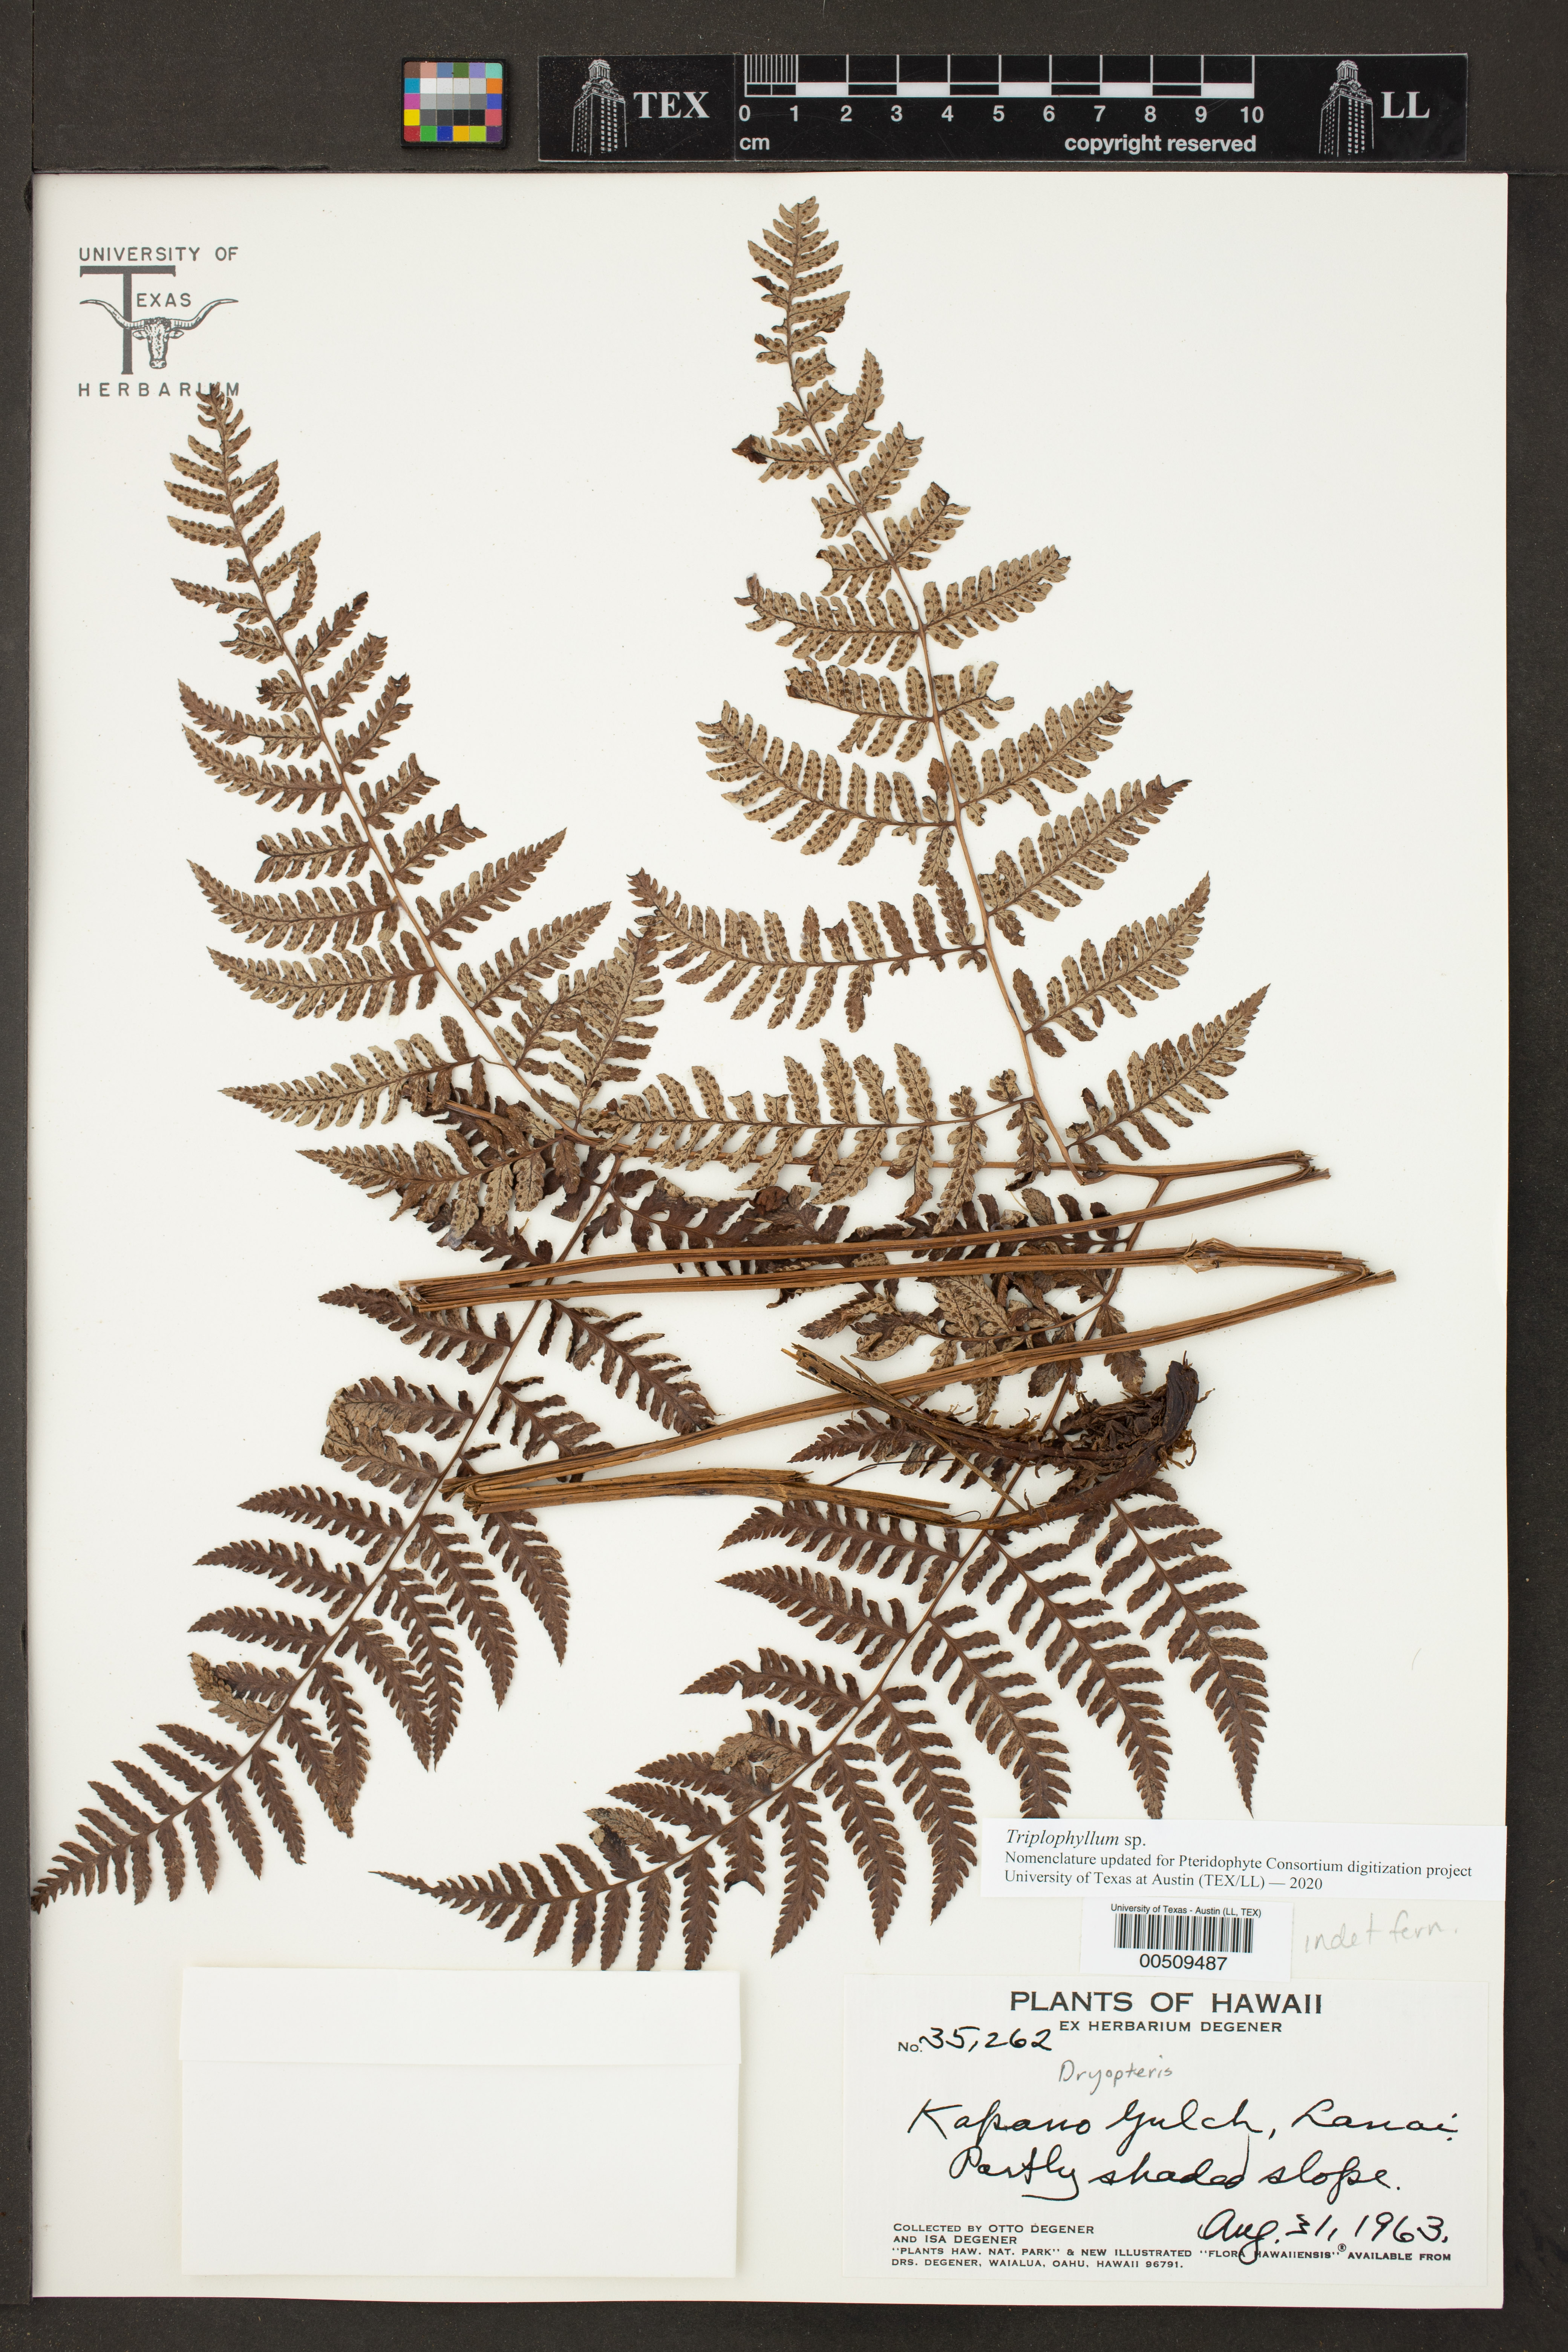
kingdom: Plantae
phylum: Tracheophyta
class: Polypodiopsida
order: Polypodiales
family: Tectariaceae
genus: Triplophyllum
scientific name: Triplophyllum
